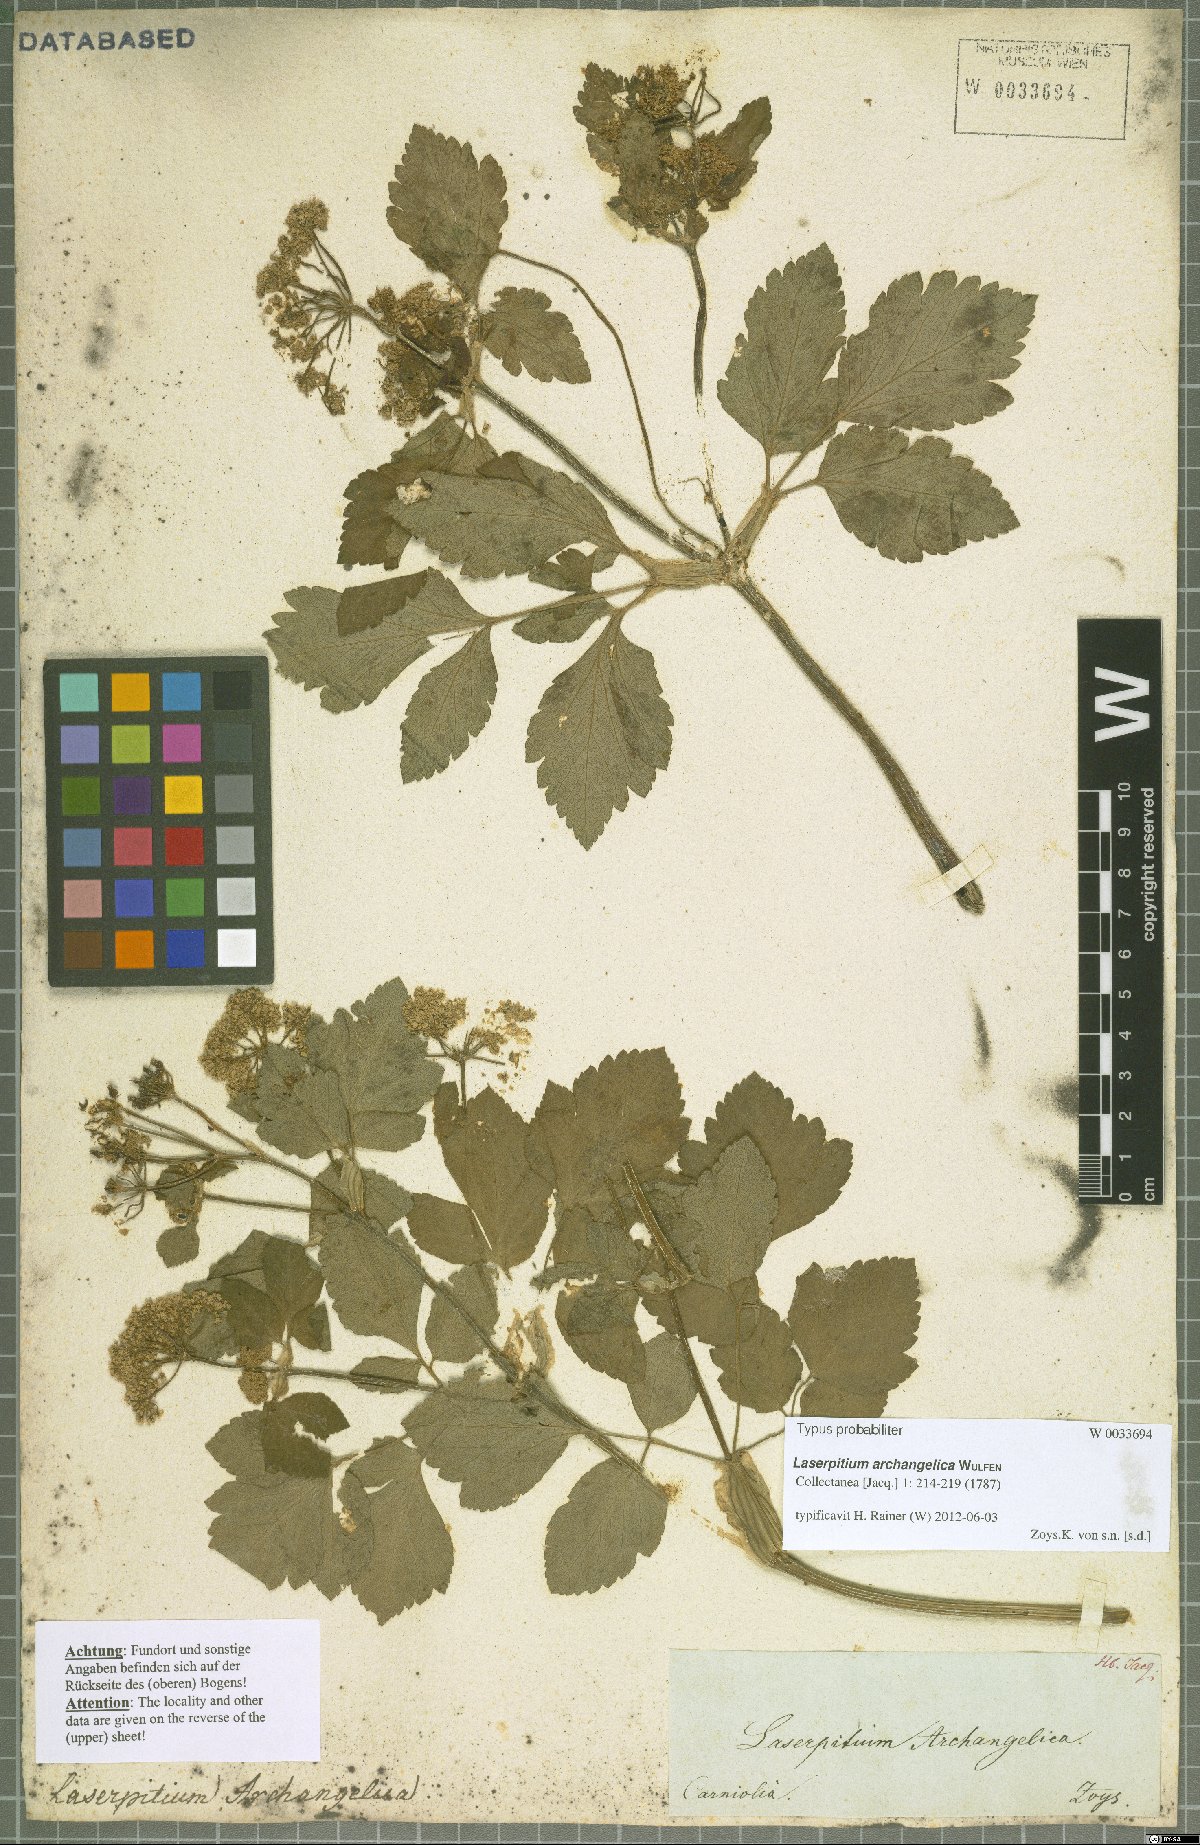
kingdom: Plantae
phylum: Tracheophyta
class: Magnoliopsida
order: Apiales
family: Apiaceae
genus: Laser
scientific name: Laser archangelica
